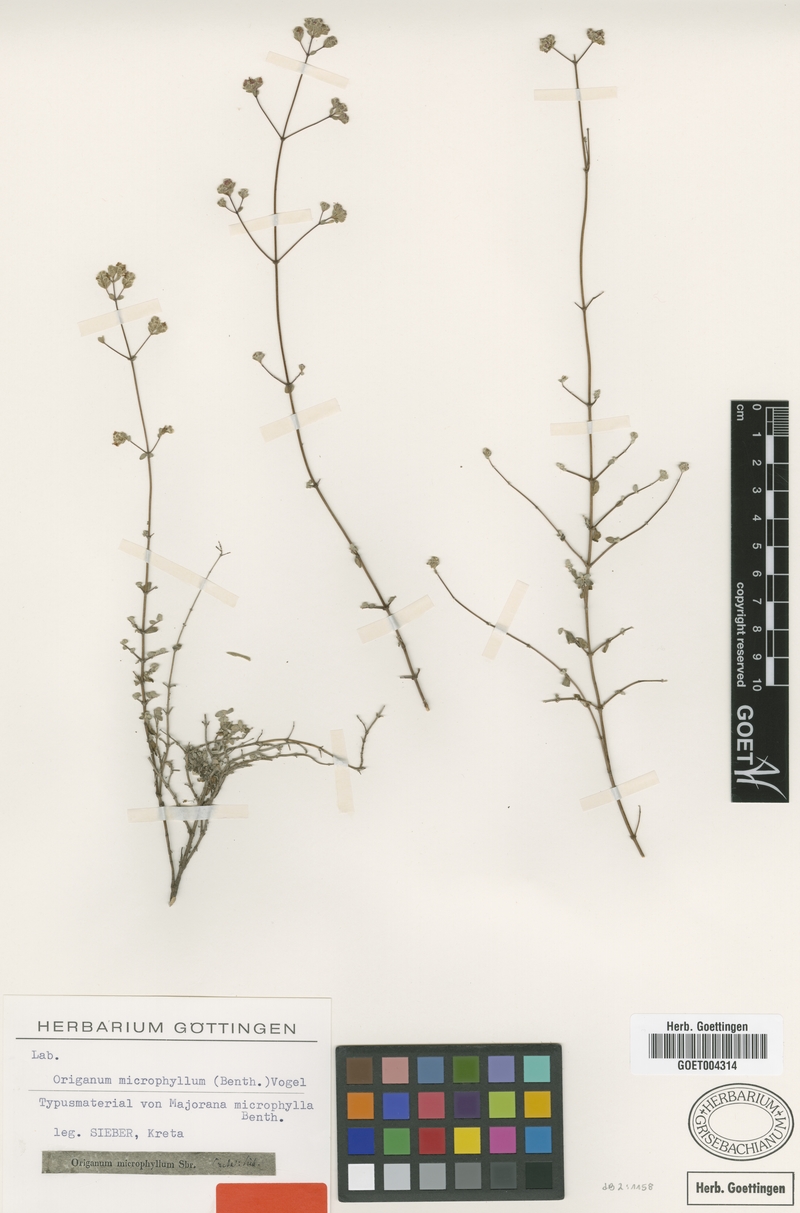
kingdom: Plantae
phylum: Tracheophyta
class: Magnoliopsida
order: Lamiales
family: Lamiaceae
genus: Origanum
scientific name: Origanum microphyllum
